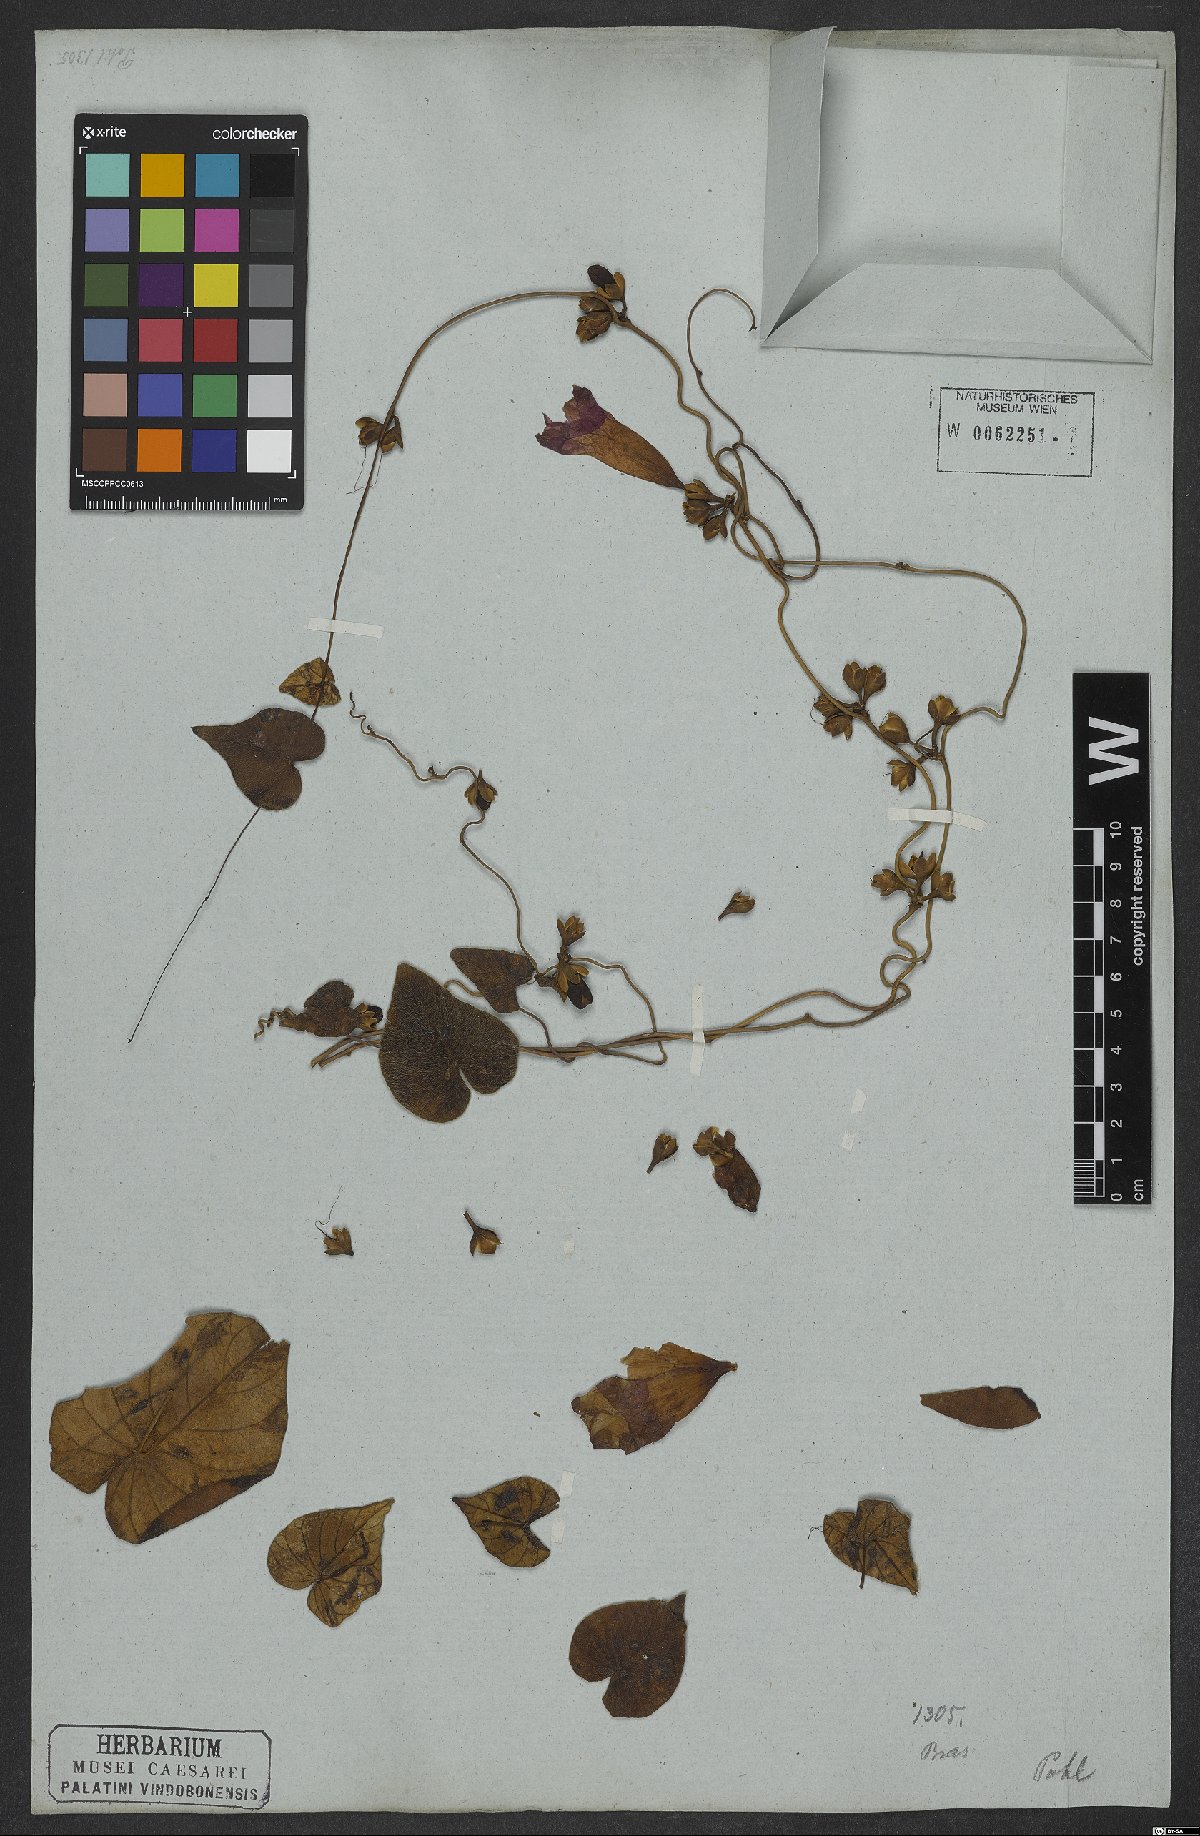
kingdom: Plantae
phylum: Tracheophyta
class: Magnoliopsida
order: Solanales
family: Convolvulaceae
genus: Ipomoea
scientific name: Ipomoea hildebrandtii
